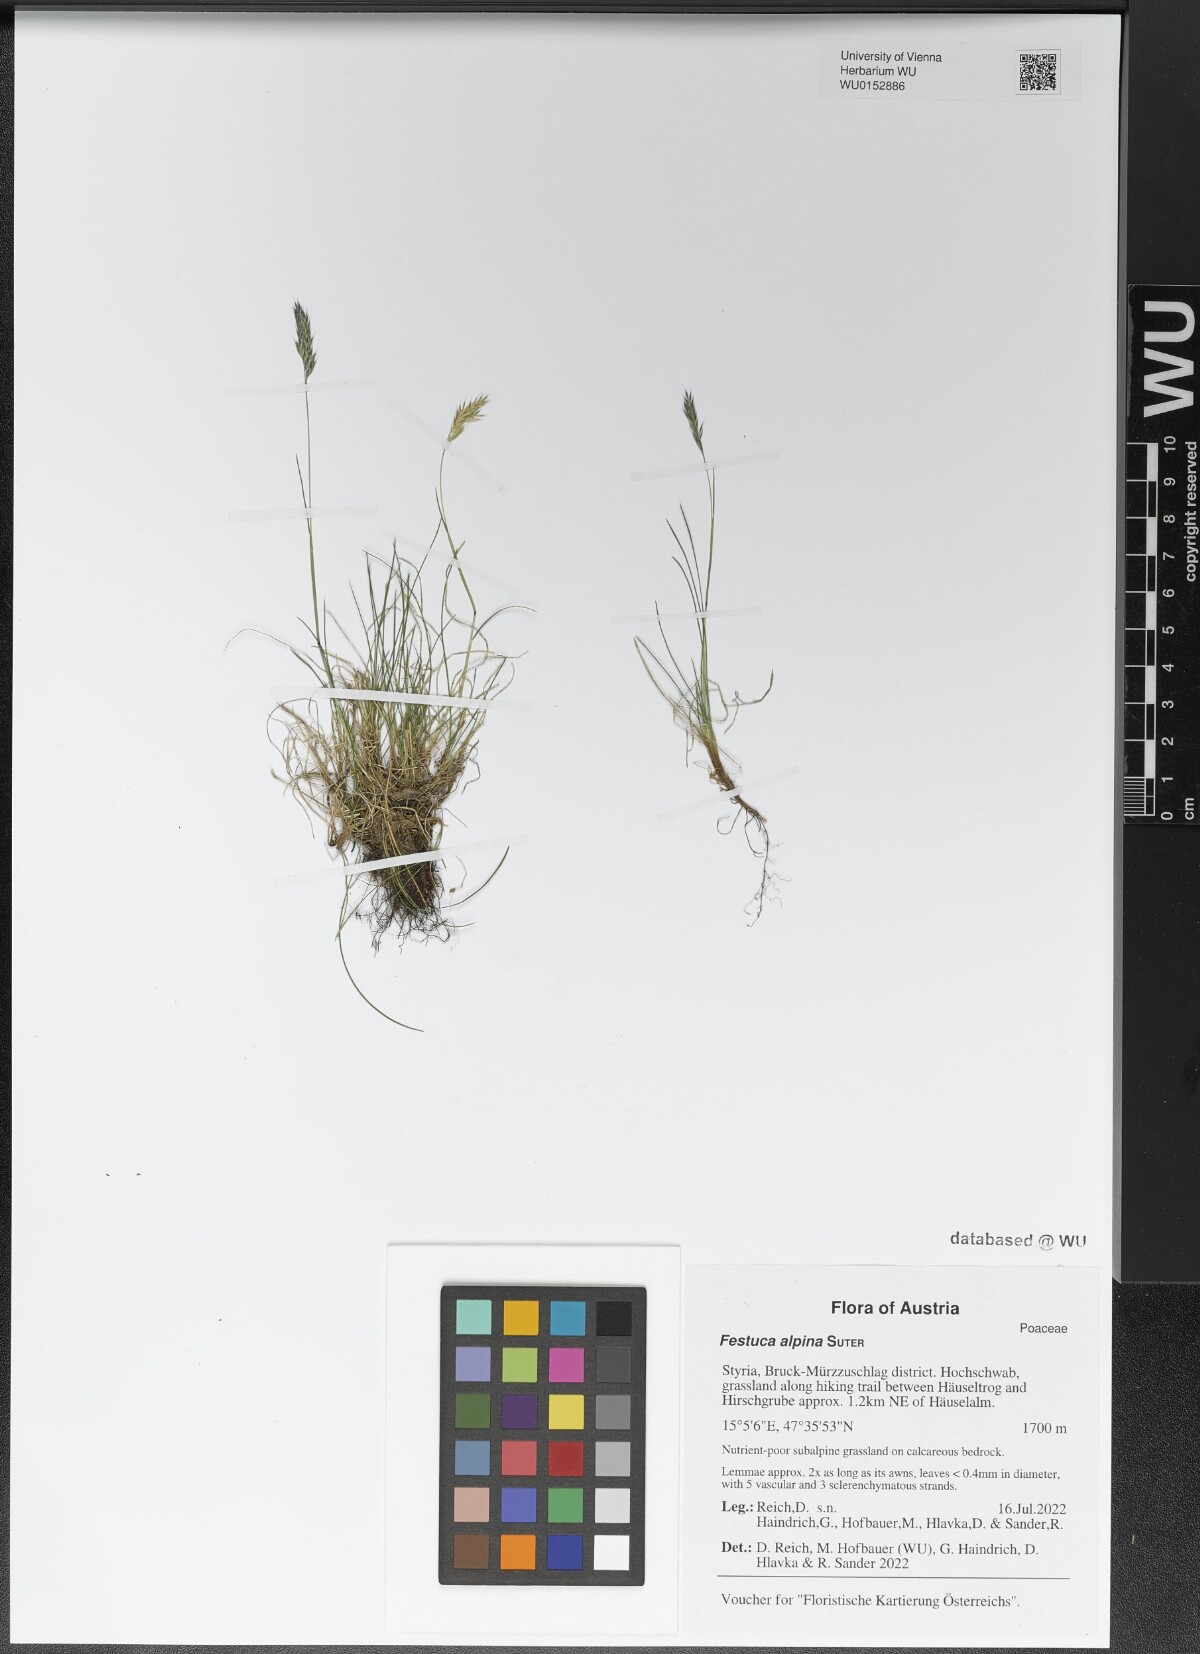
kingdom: Plantae
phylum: Tracheophyta
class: Liliopsida
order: Poales
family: Poaceae
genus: Festuca
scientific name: Festuca alpina
